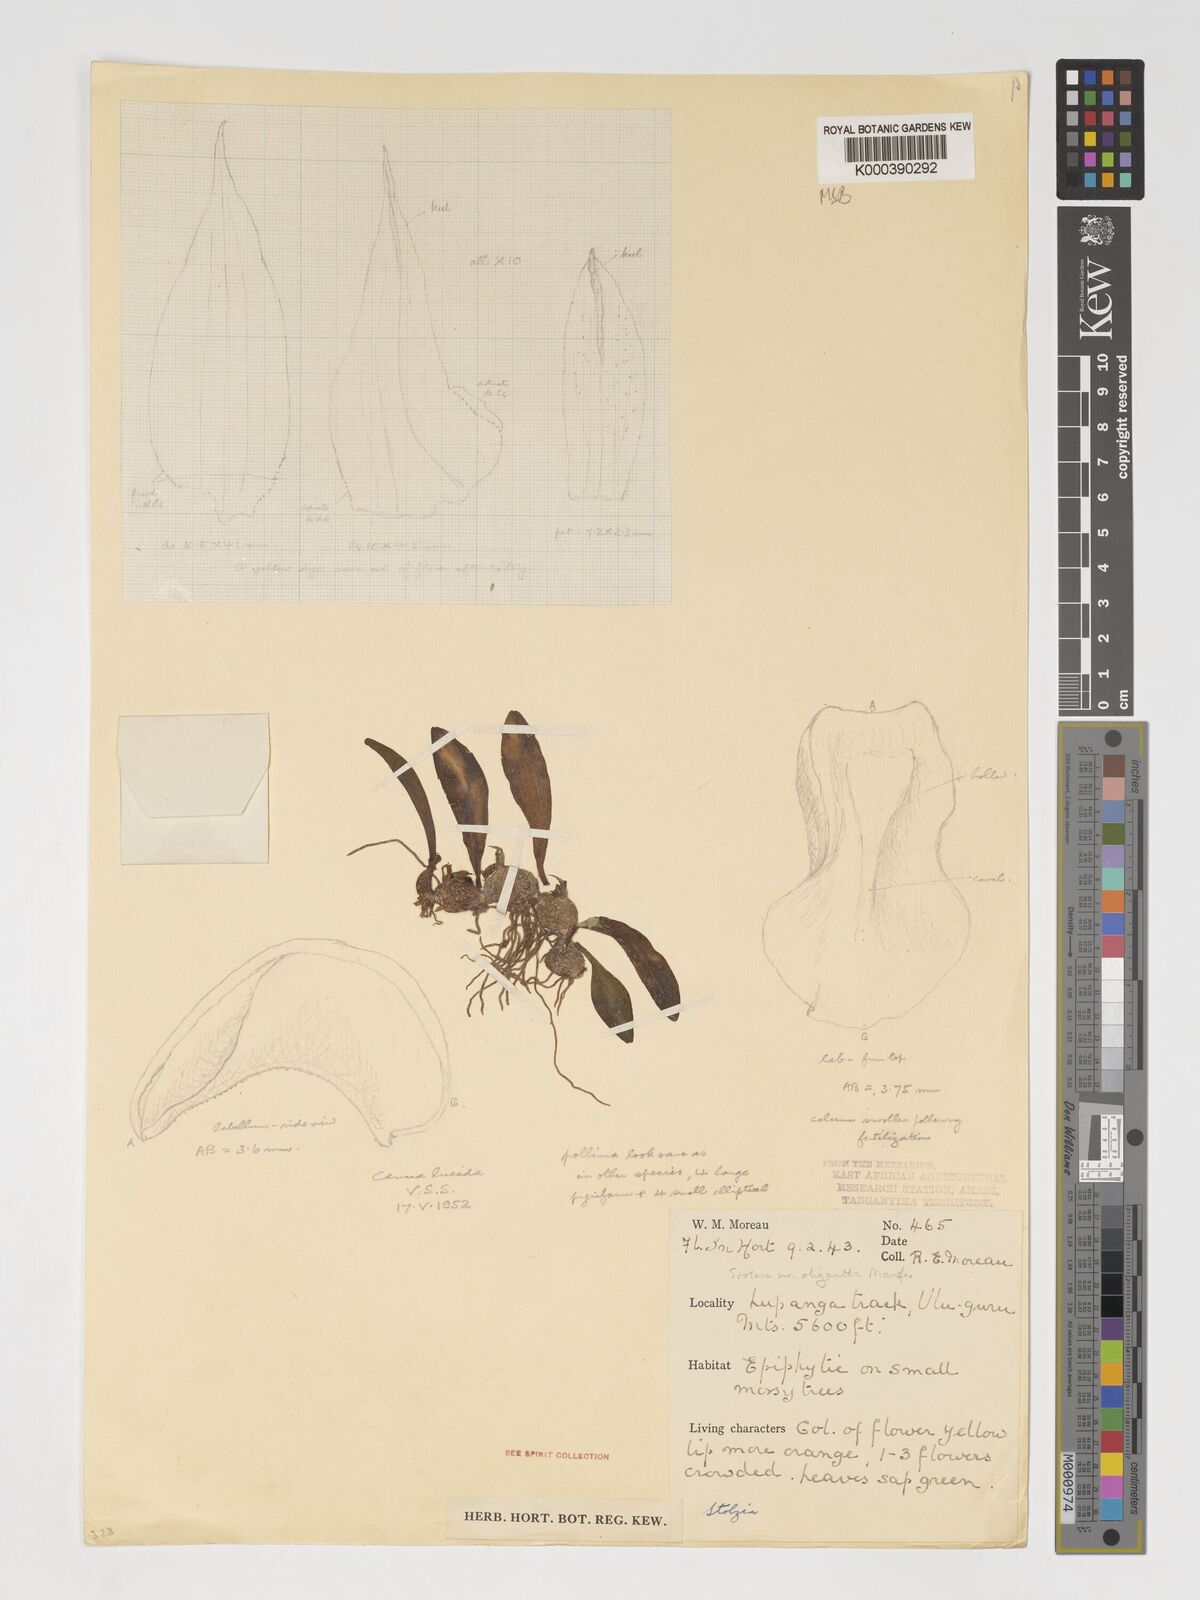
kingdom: Plantae
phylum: Tracheophyta
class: Liliopsida
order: Asparagales
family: Orchidaceae
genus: Porpax
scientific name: Porpax oligantha
